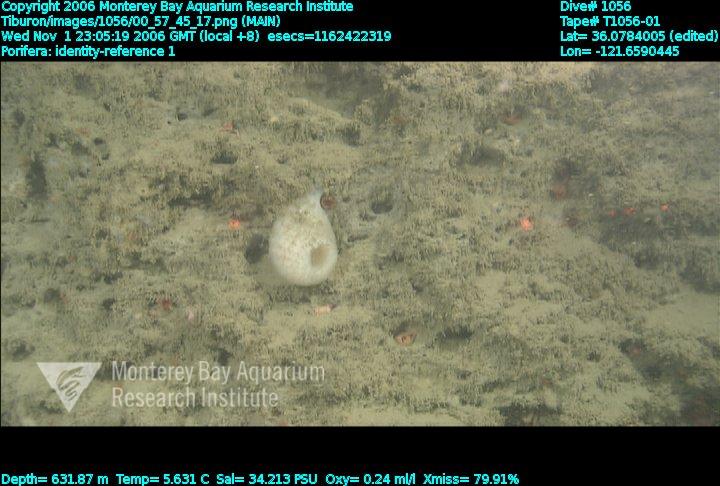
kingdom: Animalia
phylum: Porifera
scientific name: Porifera
